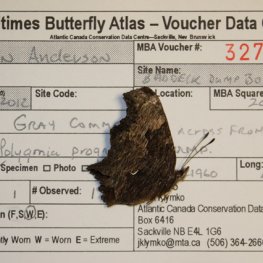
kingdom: Animalia
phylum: Arthropoda
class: Insecta
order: Lepidoptera
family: Nymphalidae
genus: Polygonia
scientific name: Polygonia progne
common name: Gray Comma
